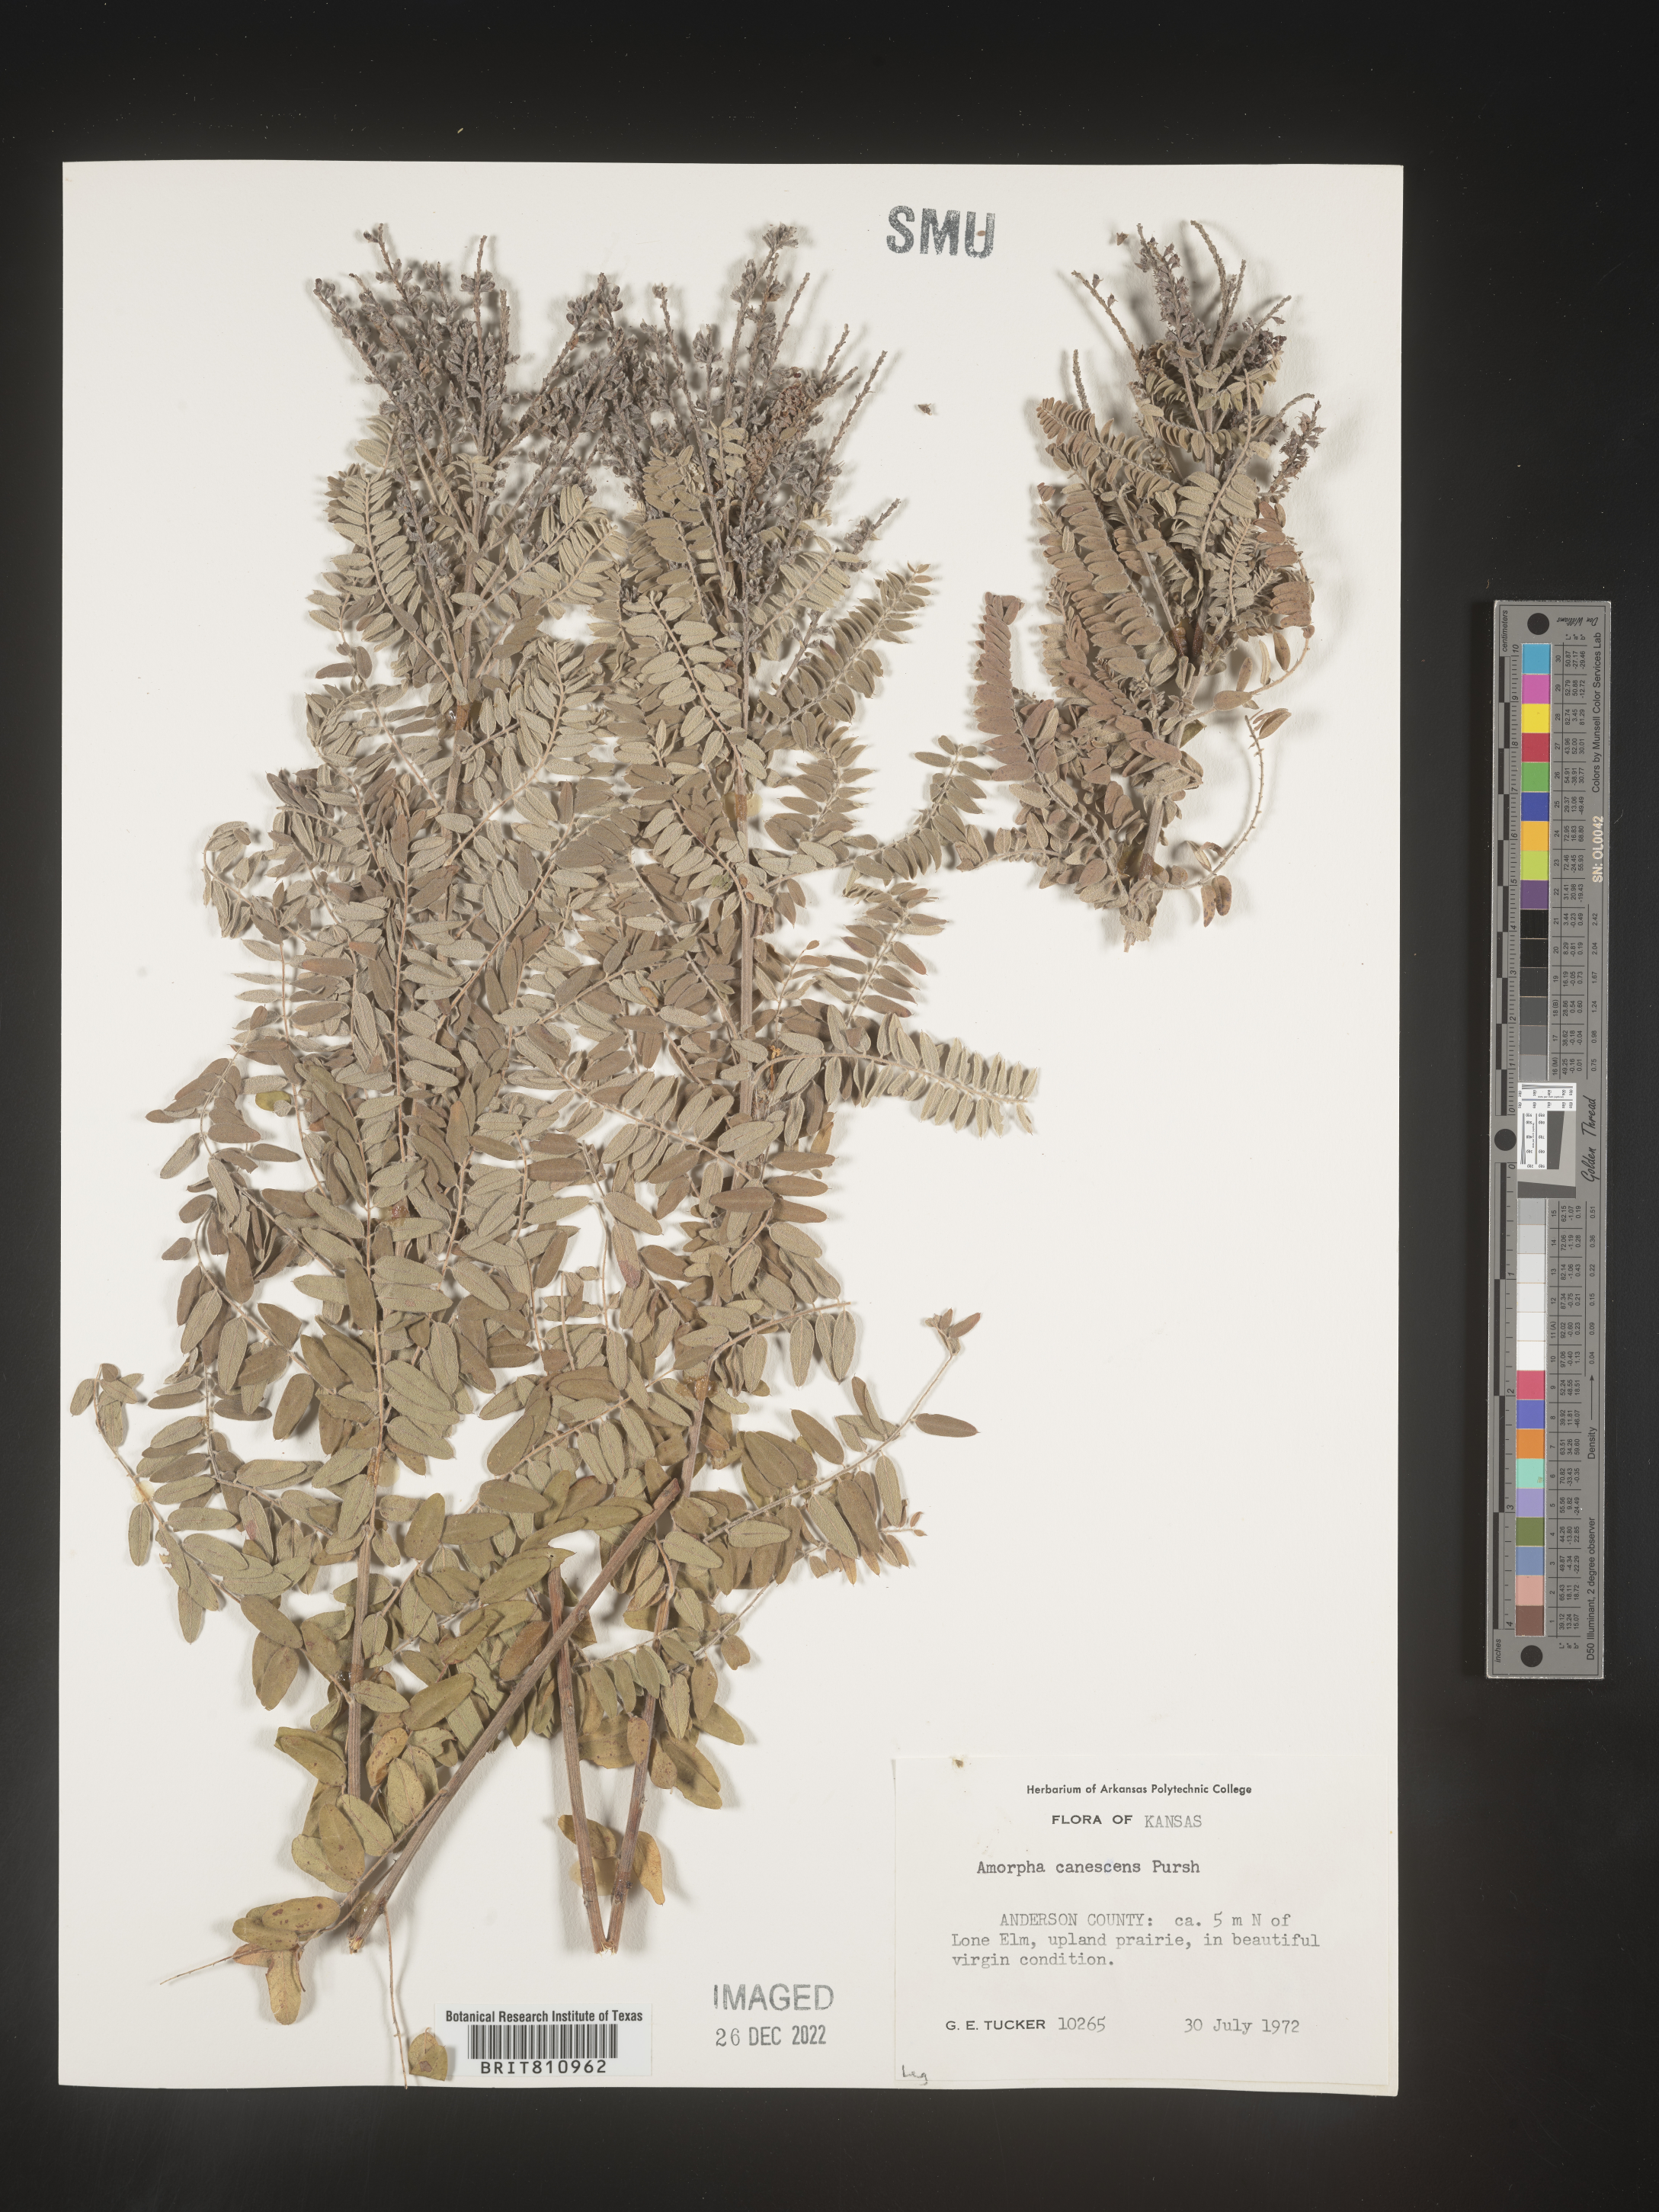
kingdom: Plantae
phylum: Tracheophyta
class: Magnoliopsida
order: Fabales
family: Fabaceae
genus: Amorpha
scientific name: Amorpha canescens
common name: Leadplant
